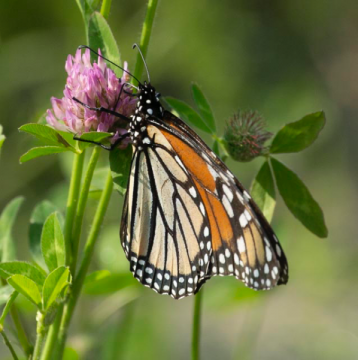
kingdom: Animalia
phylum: Arthropoda
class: Insecta
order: Lepidoptera
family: Nymphalidae
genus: Danaus
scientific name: Danaus plexippus
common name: Monarch
